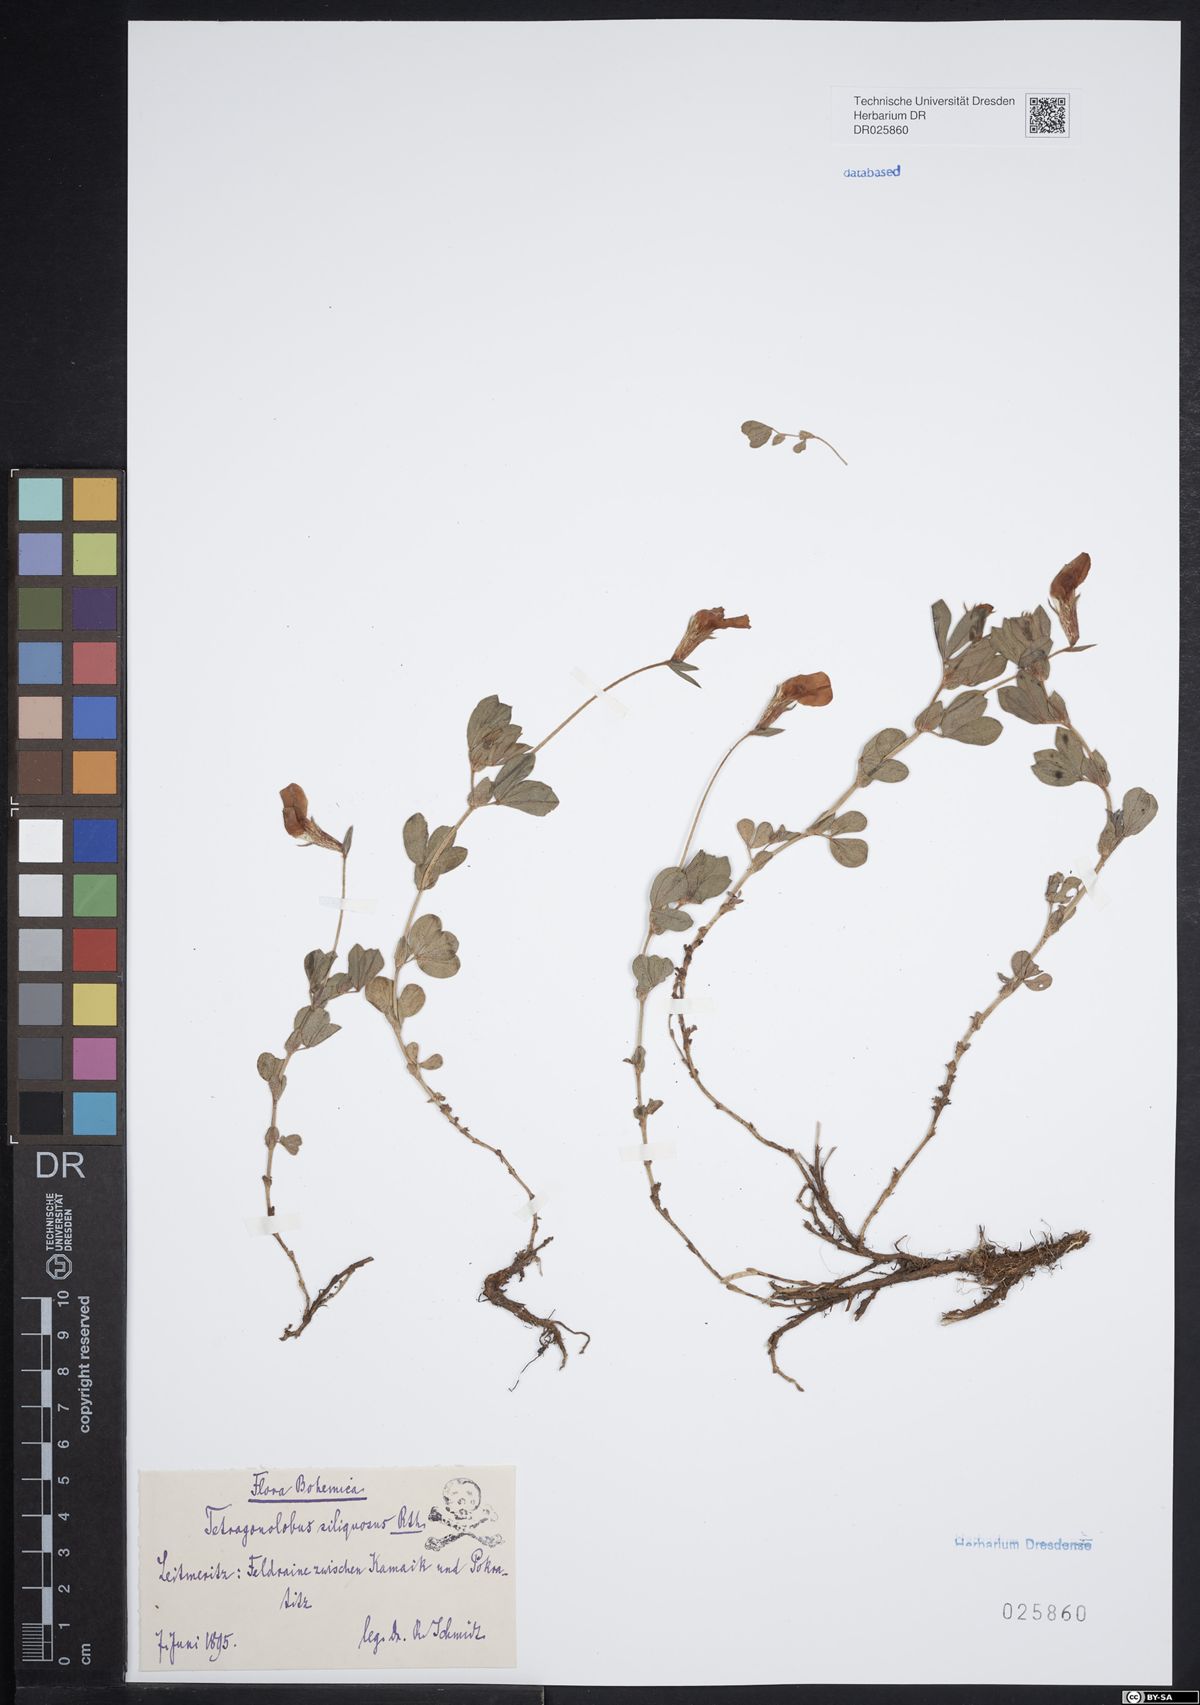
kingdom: Plantae
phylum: Tracheophyta
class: Magnoliopsida
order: Fabales
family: Fabaceae
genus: Lotus
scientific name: Lotus maritimus
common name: Dragon's-teeth
